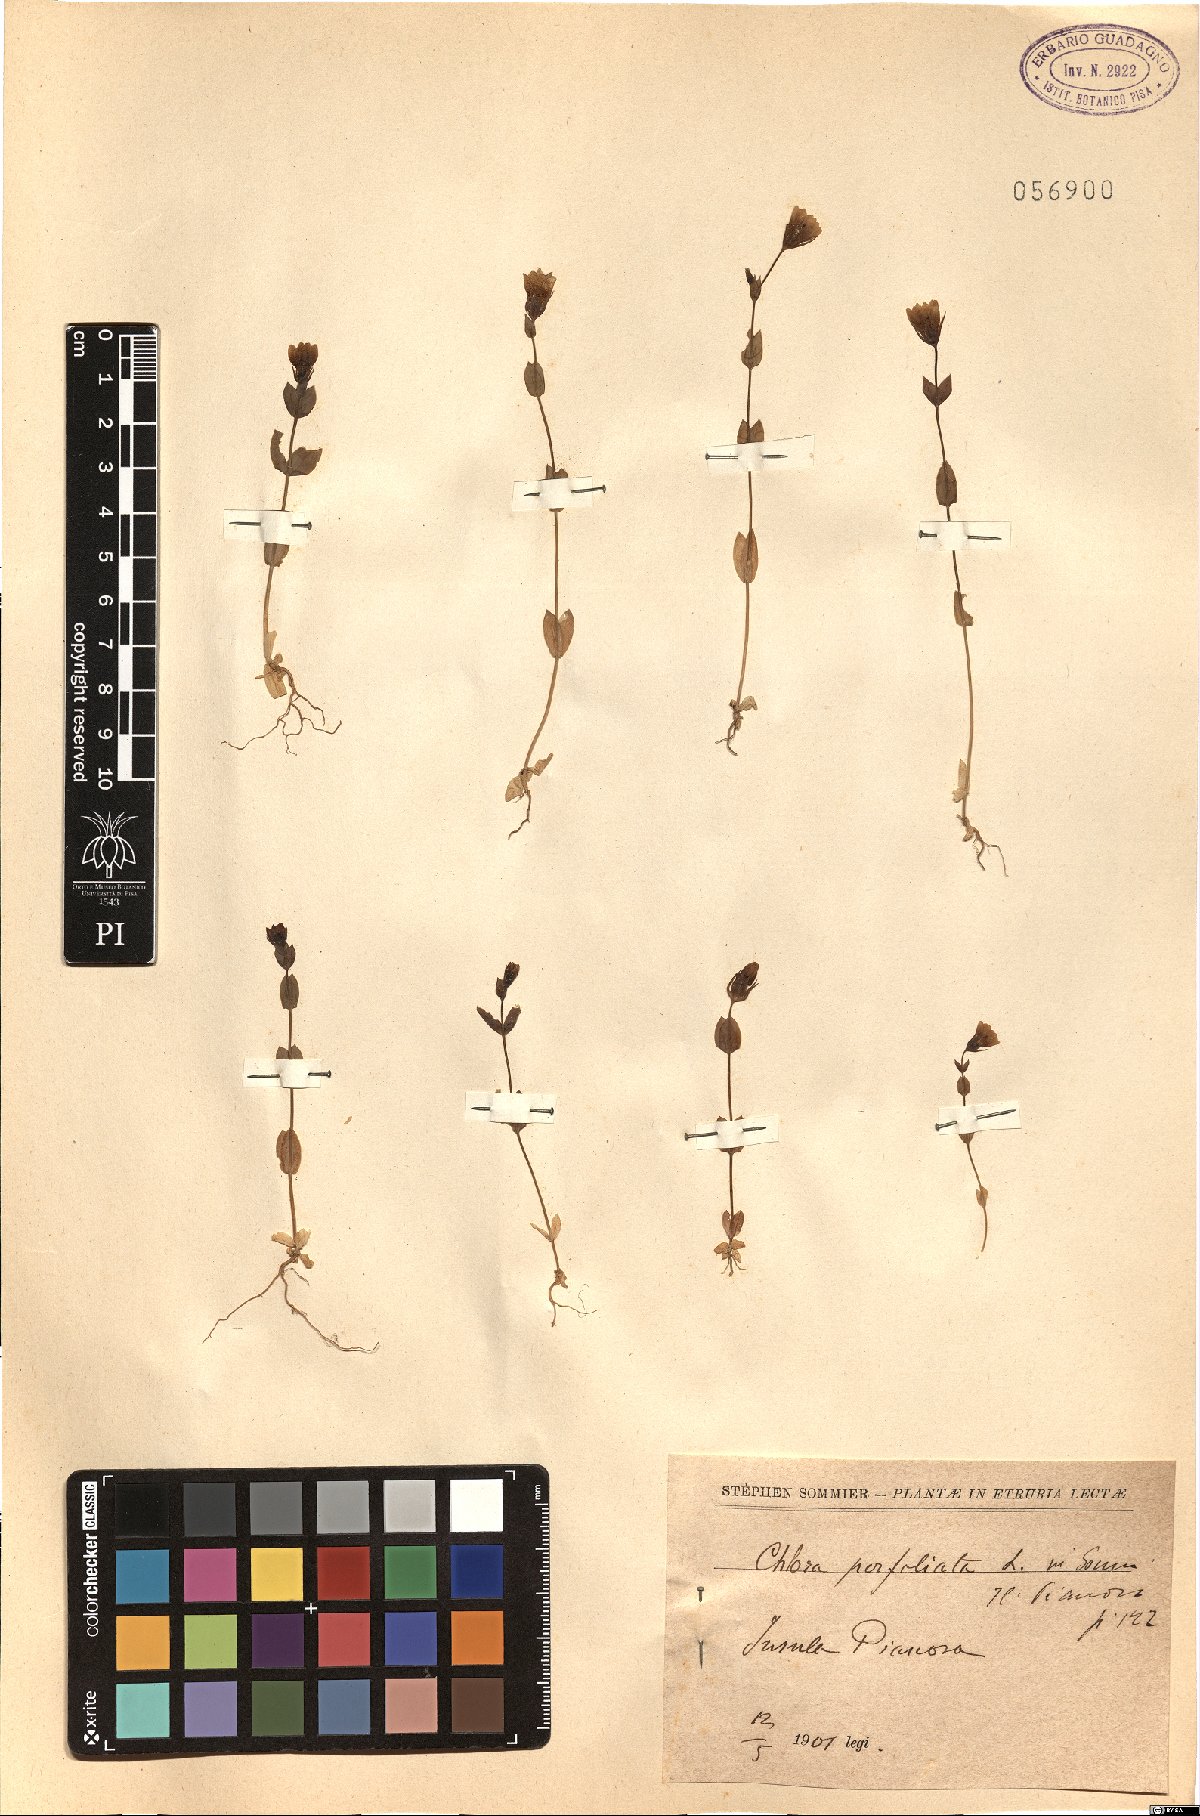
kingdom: Plantae
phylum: Tracheophyta
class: Magnoliopsida
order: Gentianales
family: Gentianaceae
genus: Blackstonia
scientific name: Blackstonia perfoliata
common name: Yellow-wort
